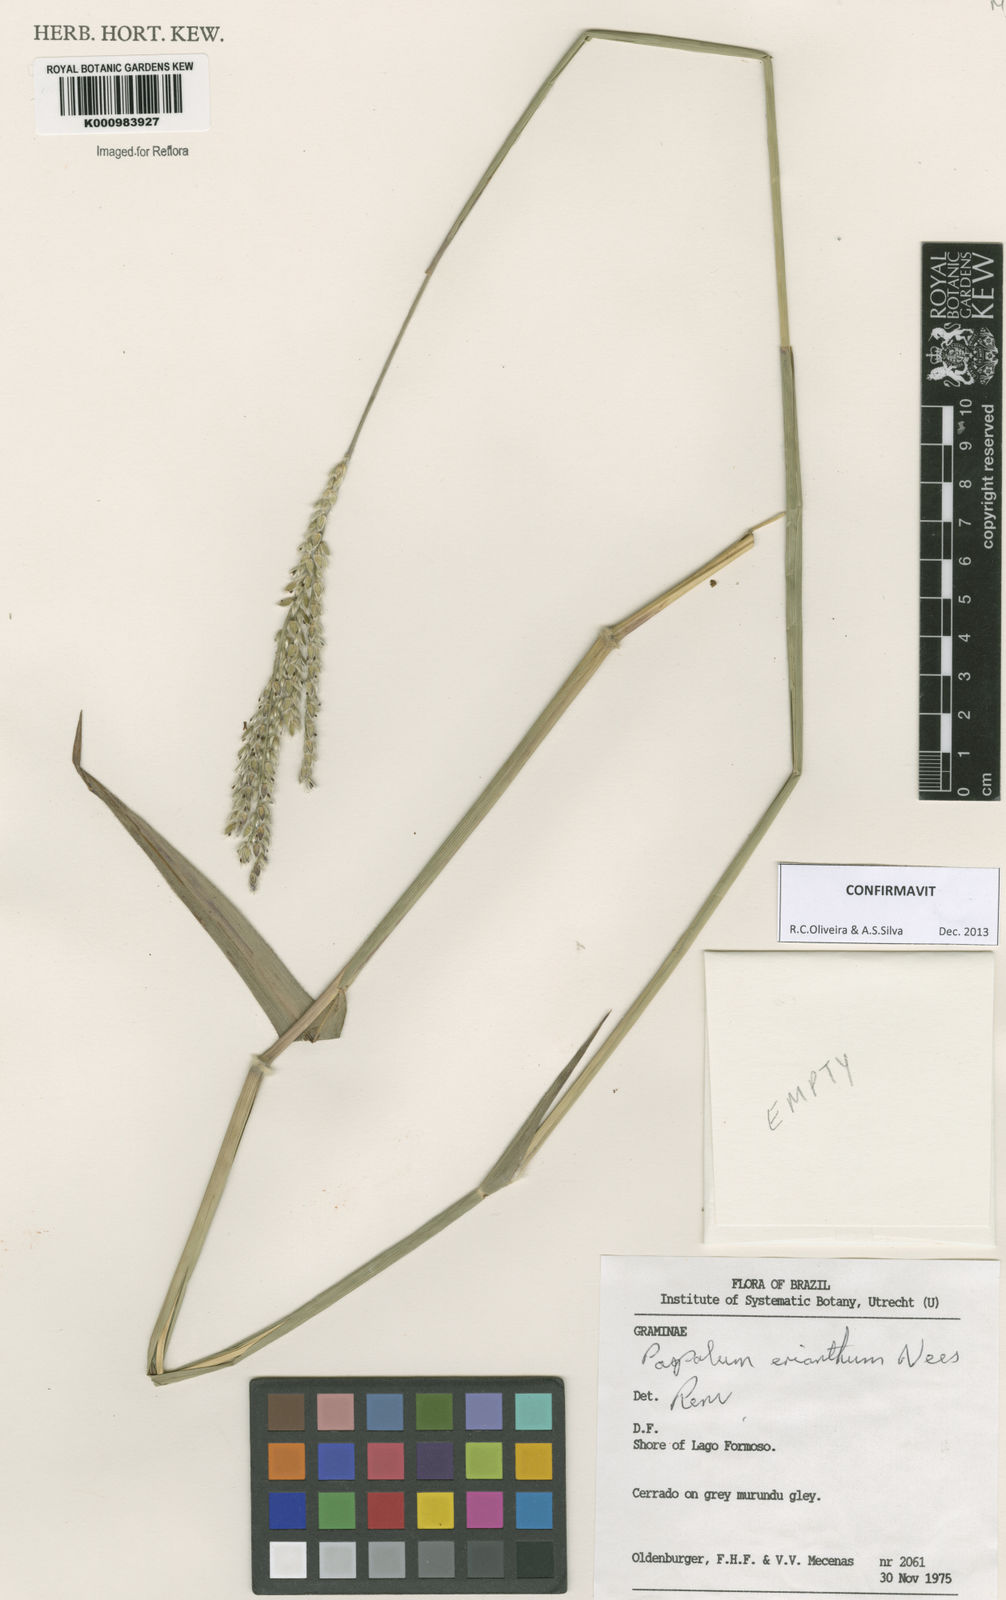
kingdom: Plantae
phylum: Tracheophyta
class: Liliopsida
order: Poales
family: Poaceae
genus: Paspalum
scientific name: Paspalum erianthum
